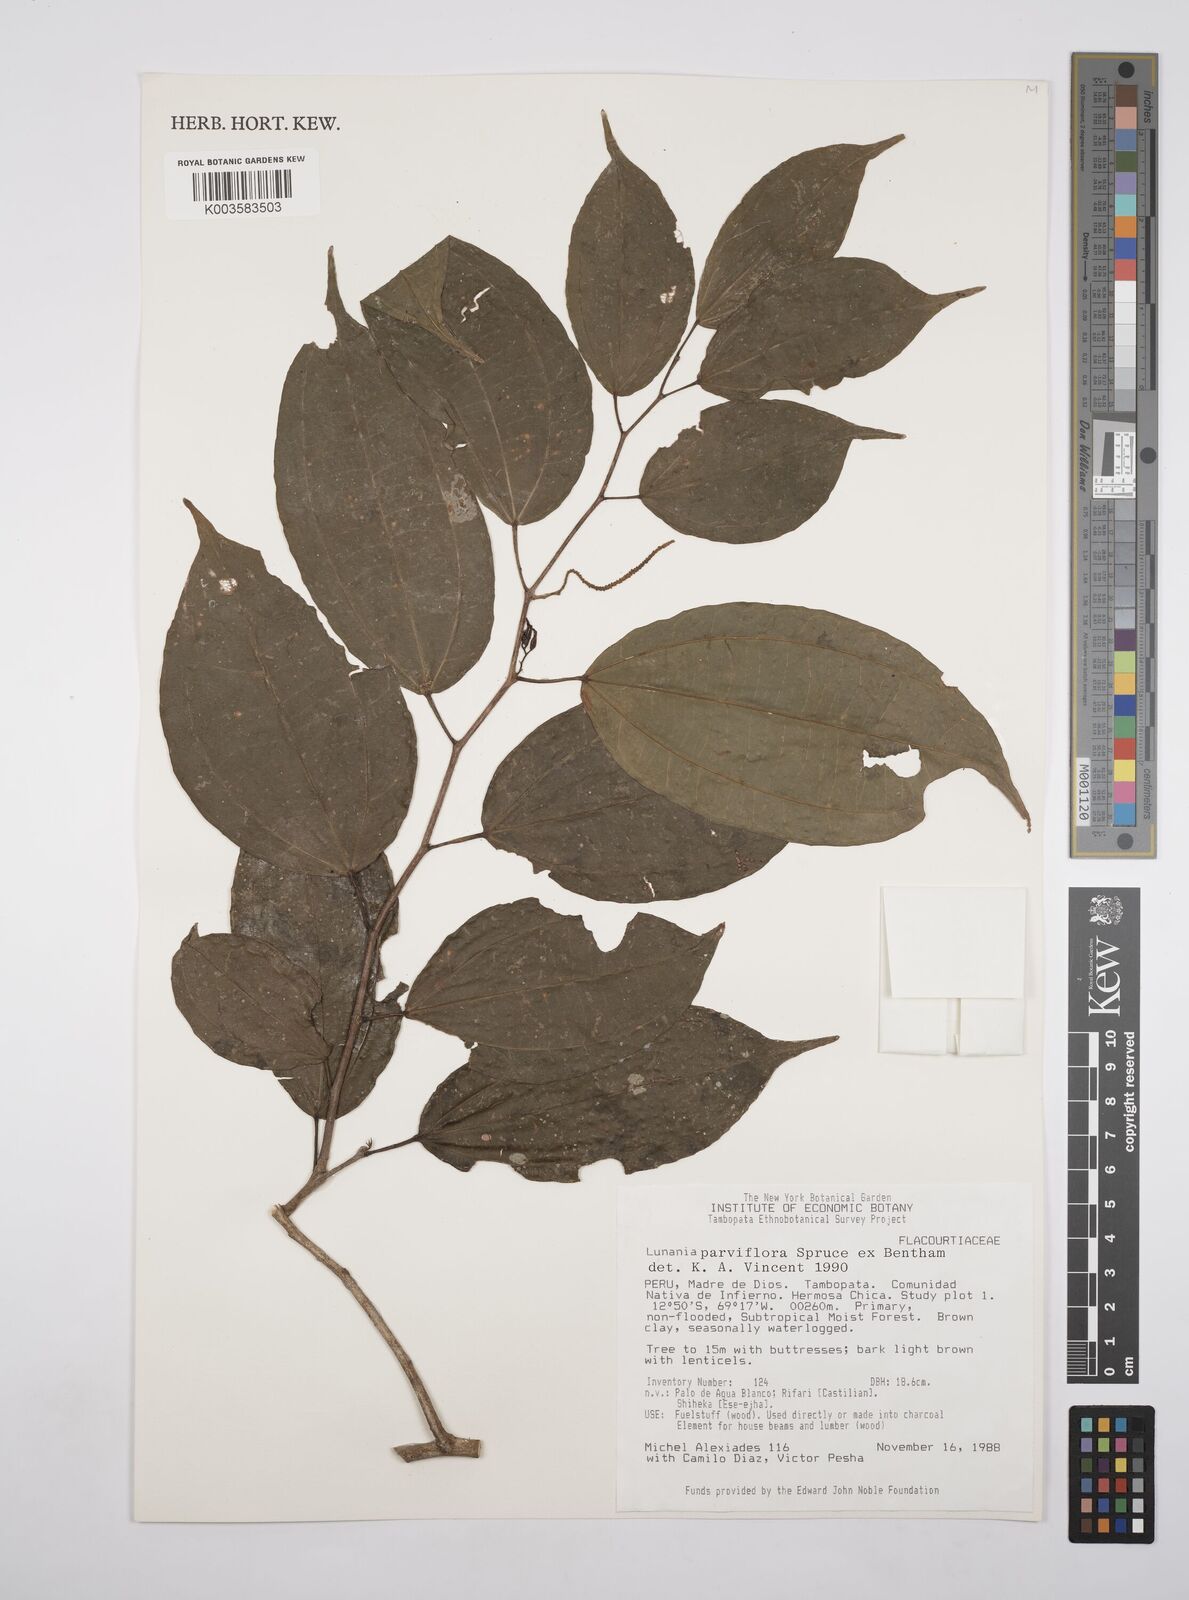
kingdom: Plantae
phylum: Tracheophyta
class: Magnoliopsida
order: Malpighiales
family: Salicaceae
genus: Lunania
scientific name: Lunania parviflora
